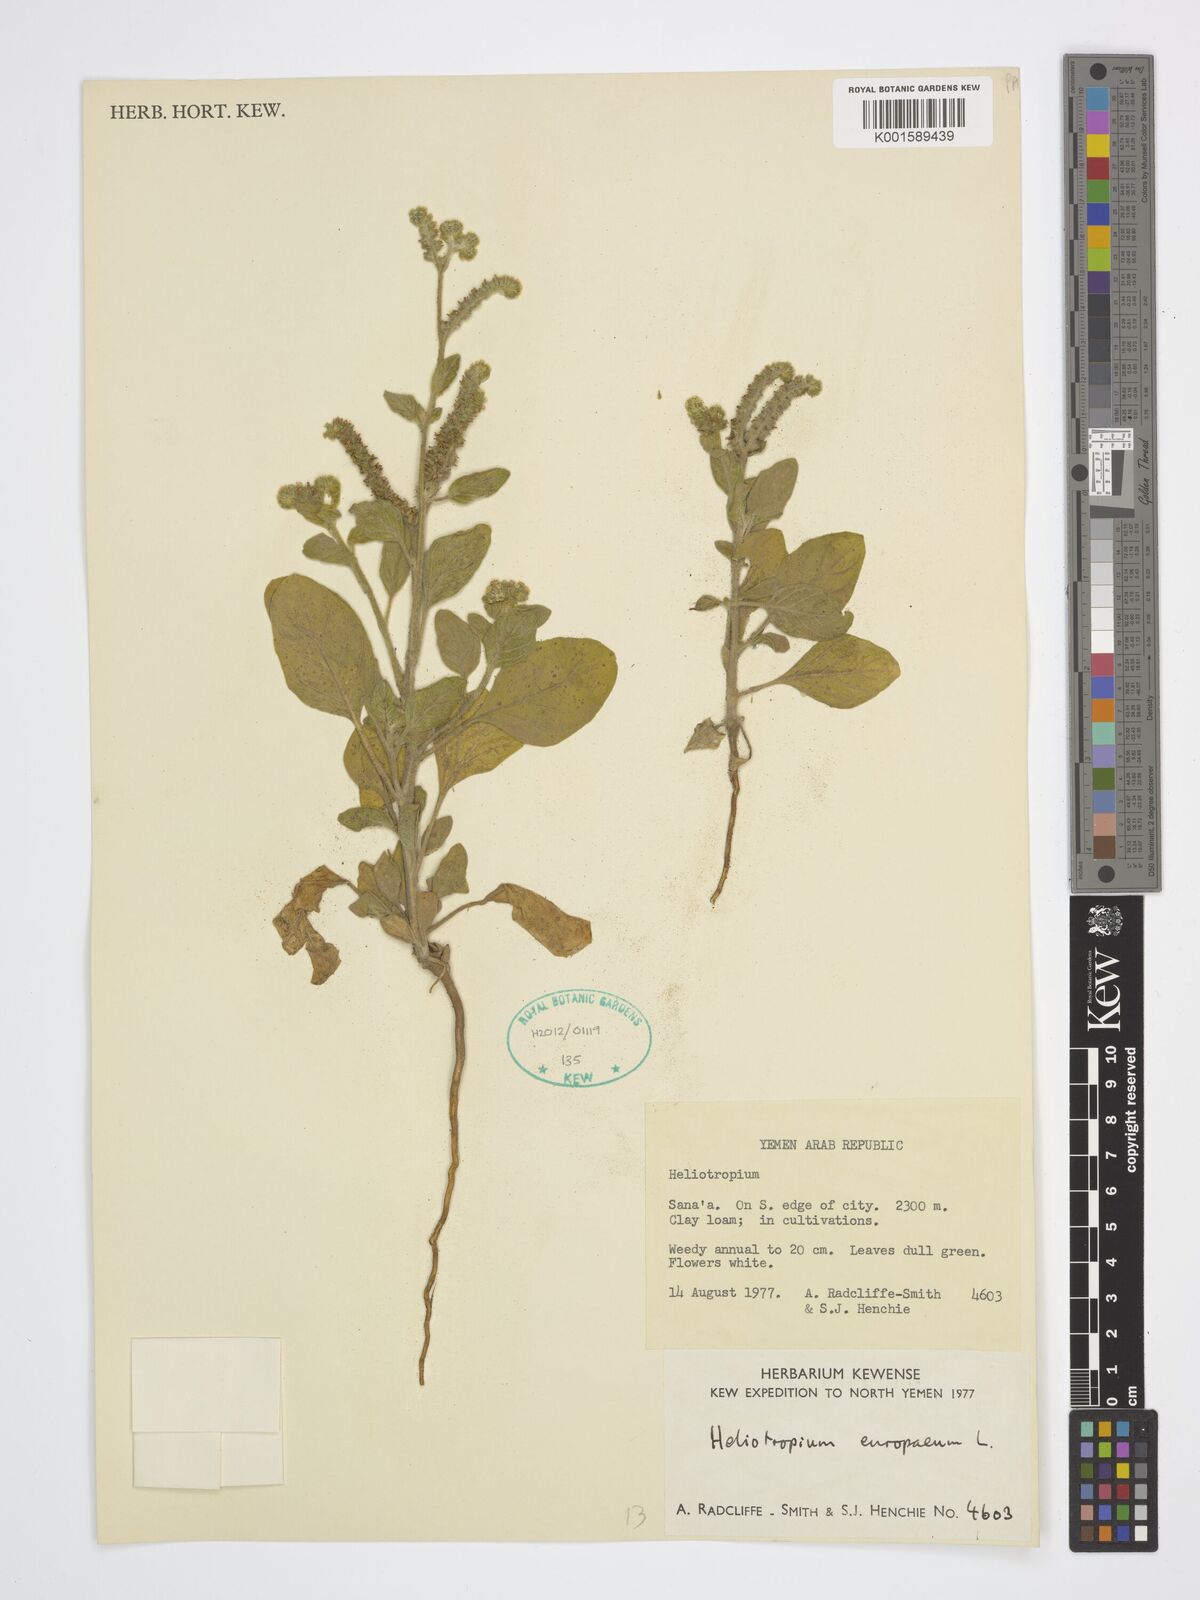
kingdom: Plantae
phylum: Tracheophyta
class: Magnoliopsida
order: Boraginales
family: Heliotropiaceae
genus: Heliotropium
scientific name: Heliotropium europaeum
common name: European heliotrope
